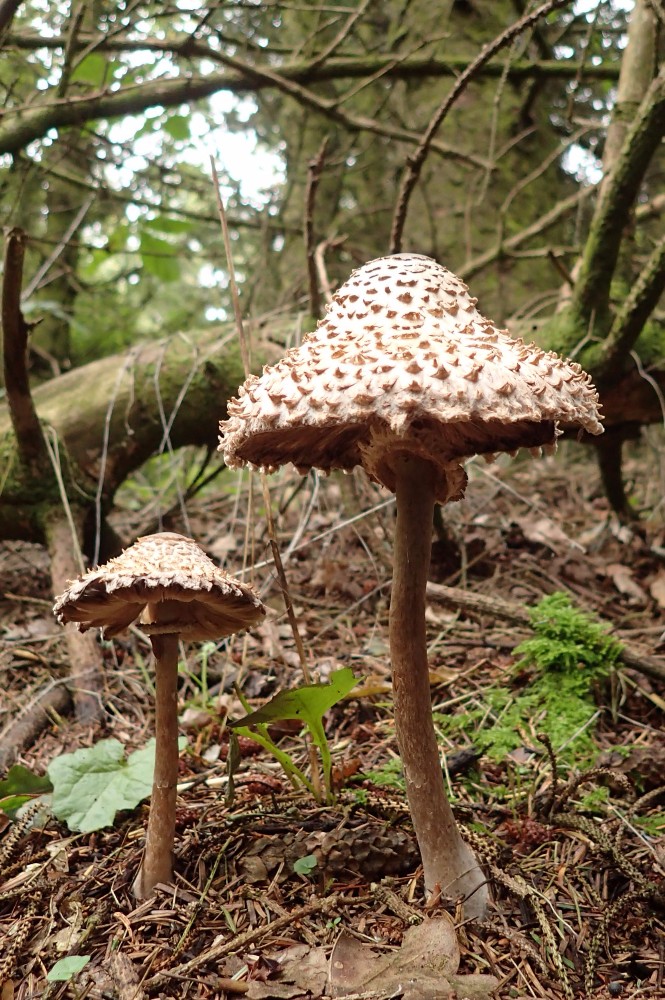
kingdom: Fungi
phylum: Basidiomycota
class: Agaricomycetes
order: Agaricales
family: Agaricaceae
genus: Leucoagaricus
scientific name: Leucoagaricus nympharum
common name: gran-silkehat
